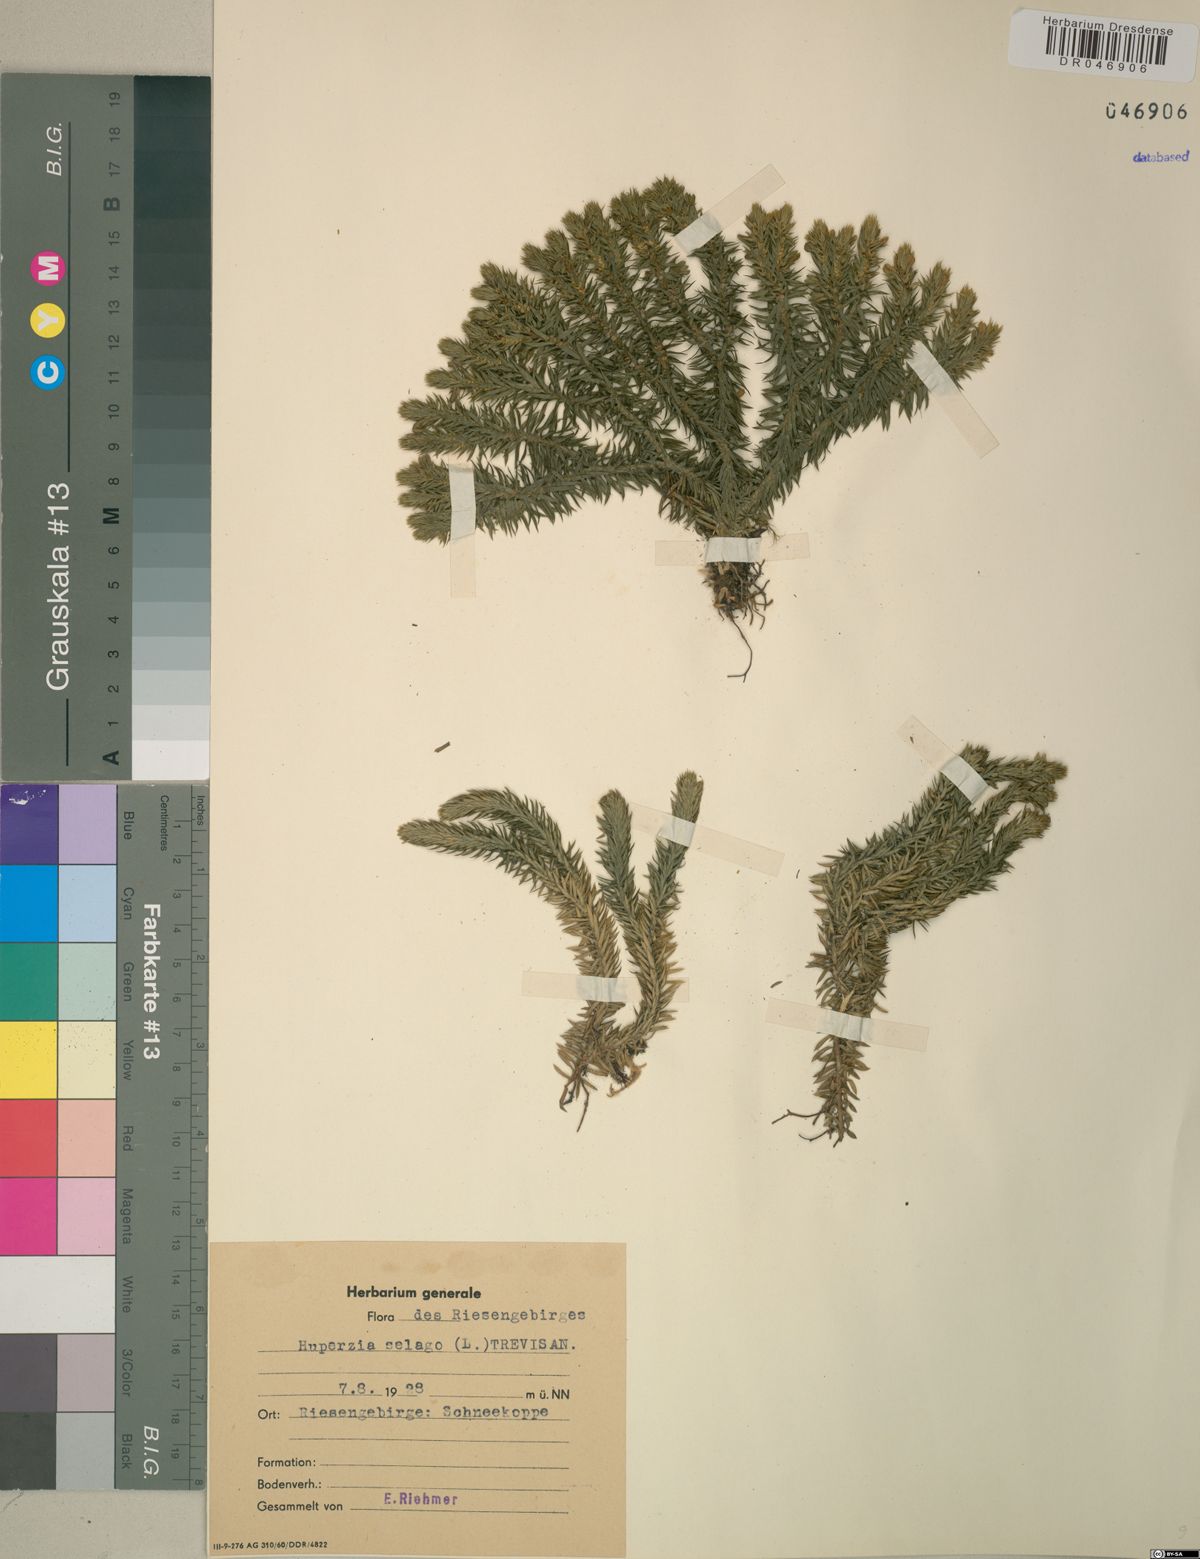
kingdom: Plantae
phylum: Tracheophyta
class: Lycopodiopsida
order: Lycopodiales
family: Lycopodiaceae
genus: Huperzia
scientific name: Huperzia selago
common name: Northern firmoss
